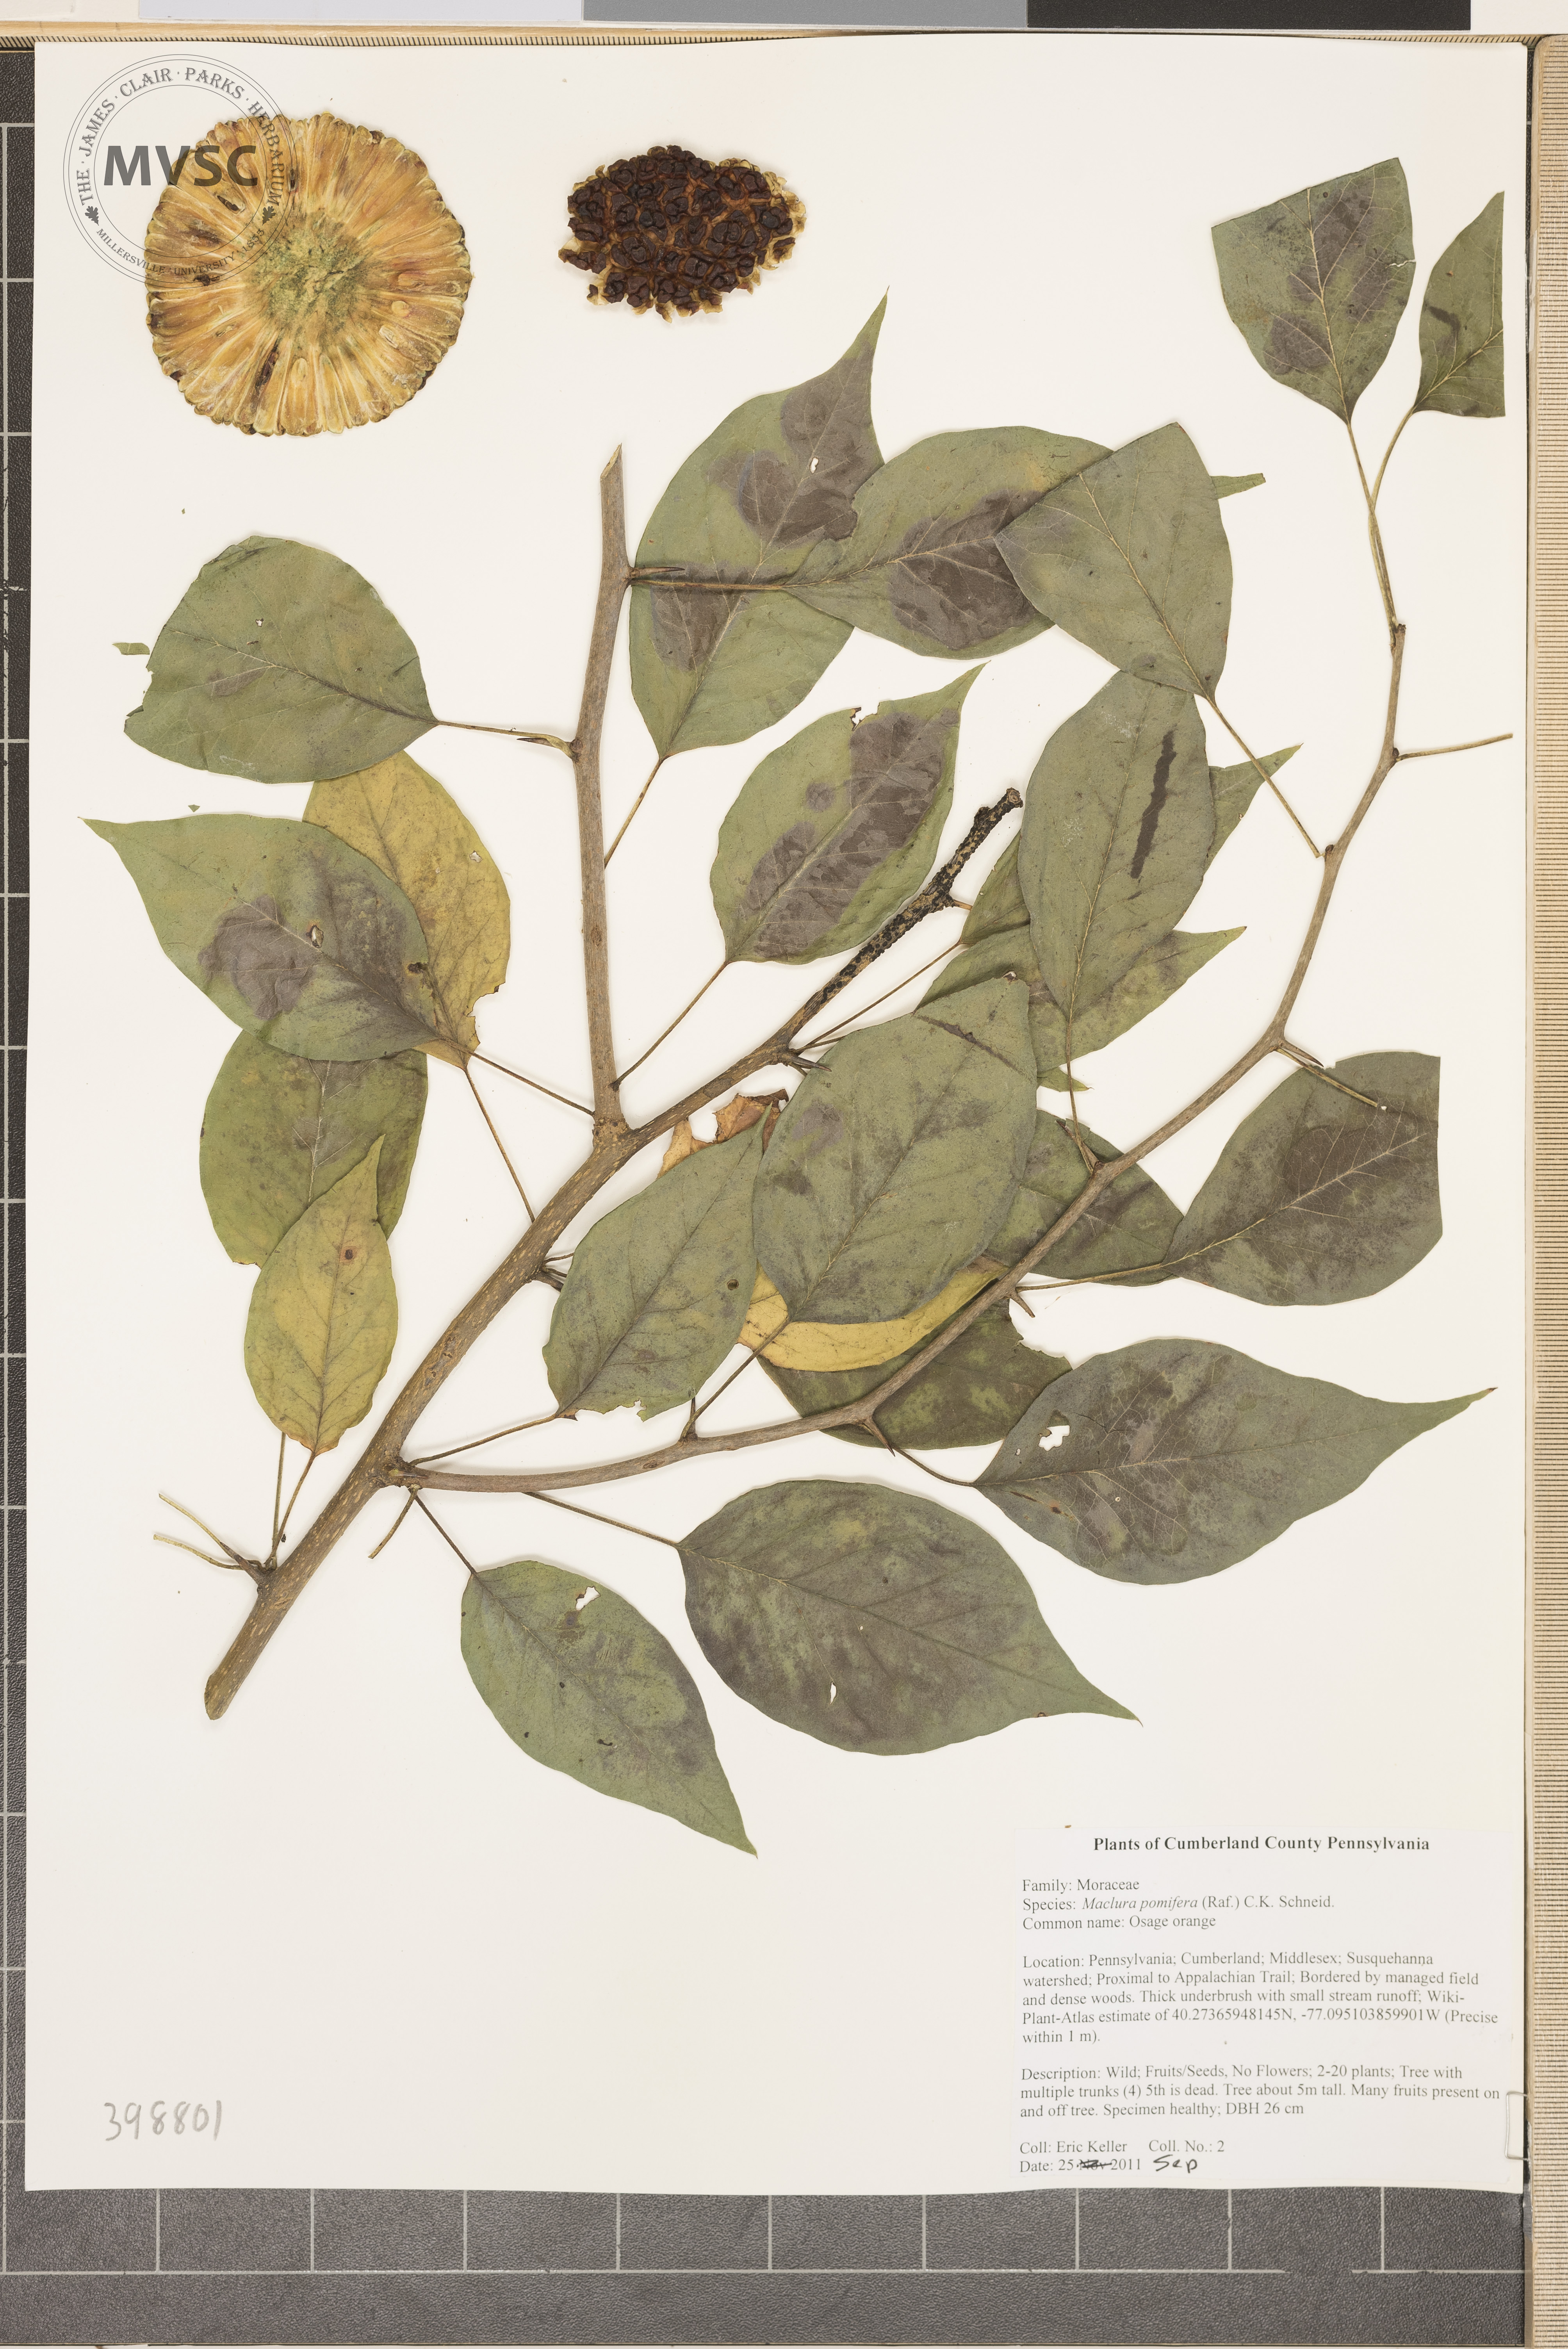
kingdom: Plantae
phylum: Tracheophyta
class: Magnoliopsida
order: Rosales
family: Moraceae
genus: Maclura
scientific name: Maclura pomifera
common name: Osage-orange
